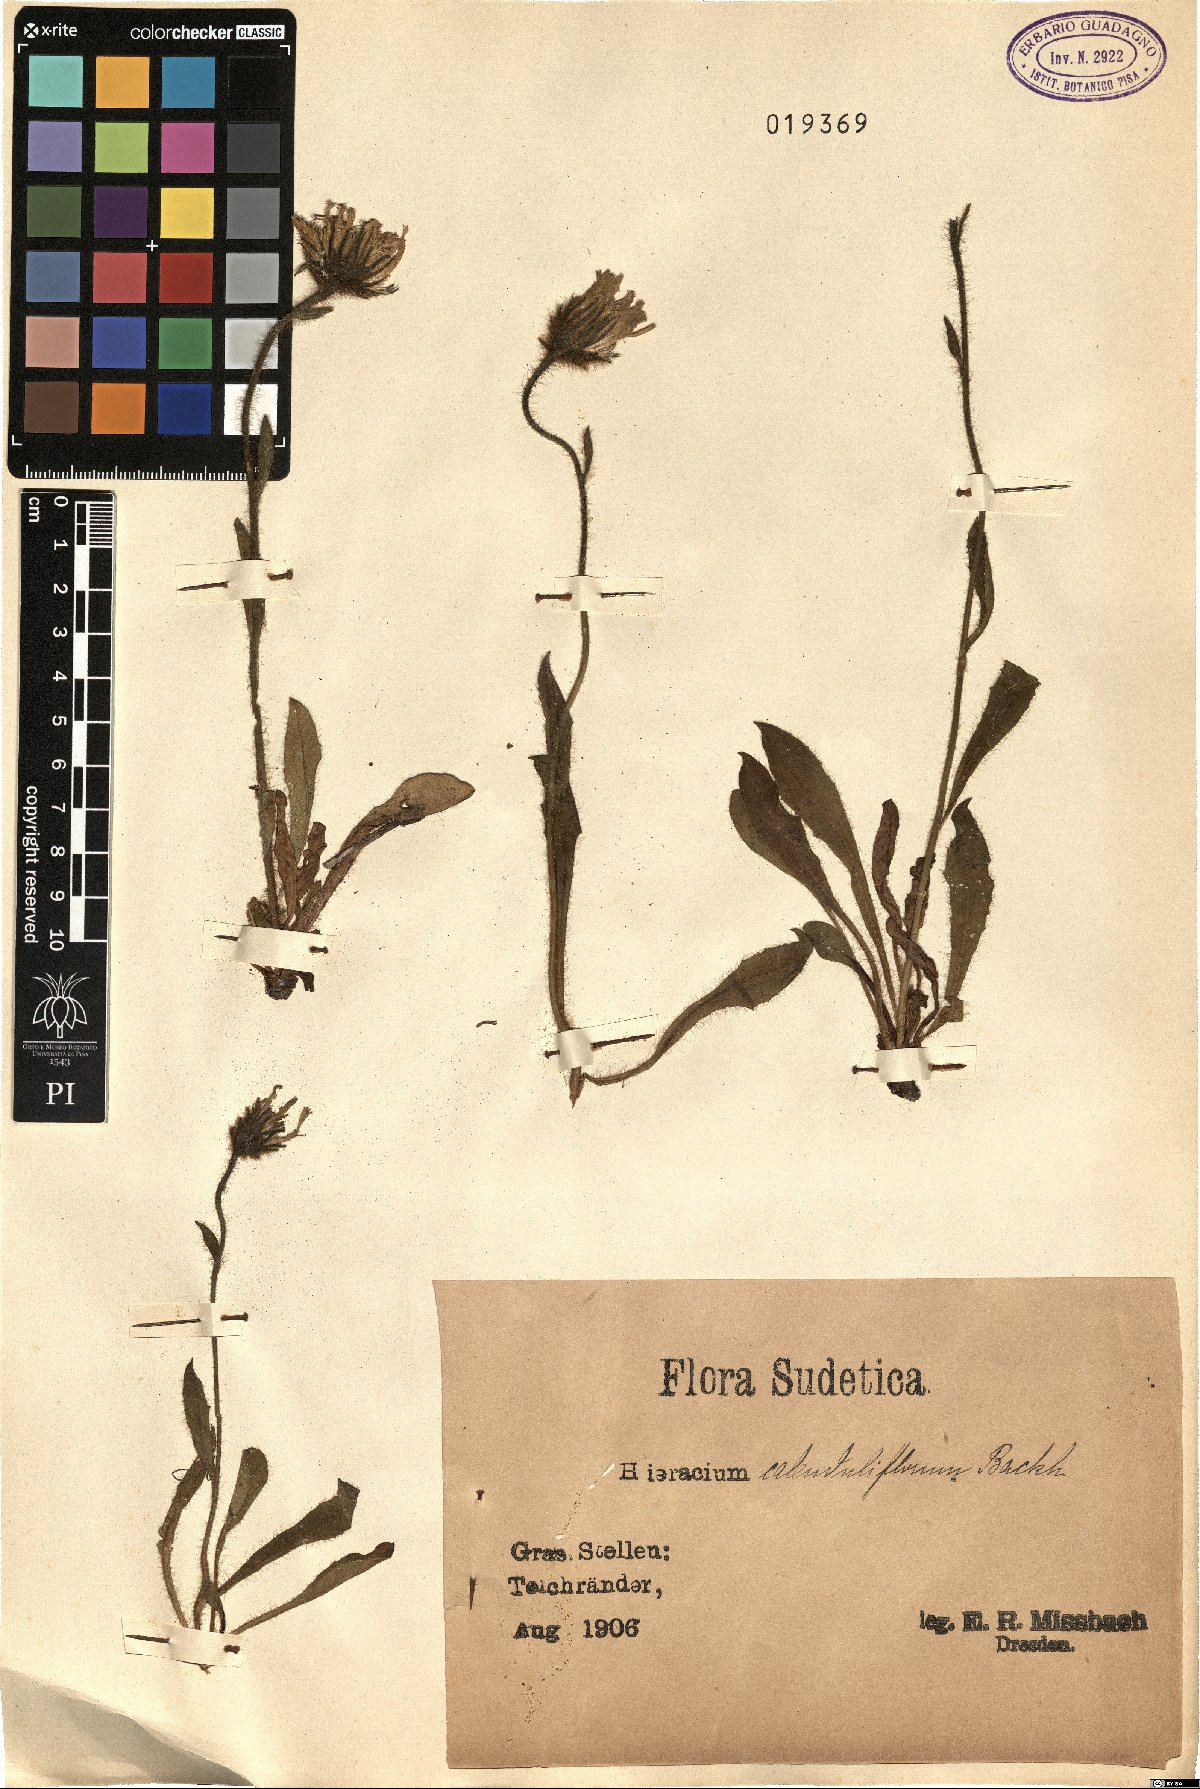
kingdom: Plantae
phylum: Tracheophyta
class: Magnoliopsida
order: Asterales
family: Asteraceae
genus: Hieracium
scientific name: Hieracium calenduliflorum
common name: Marigold hawkweed
